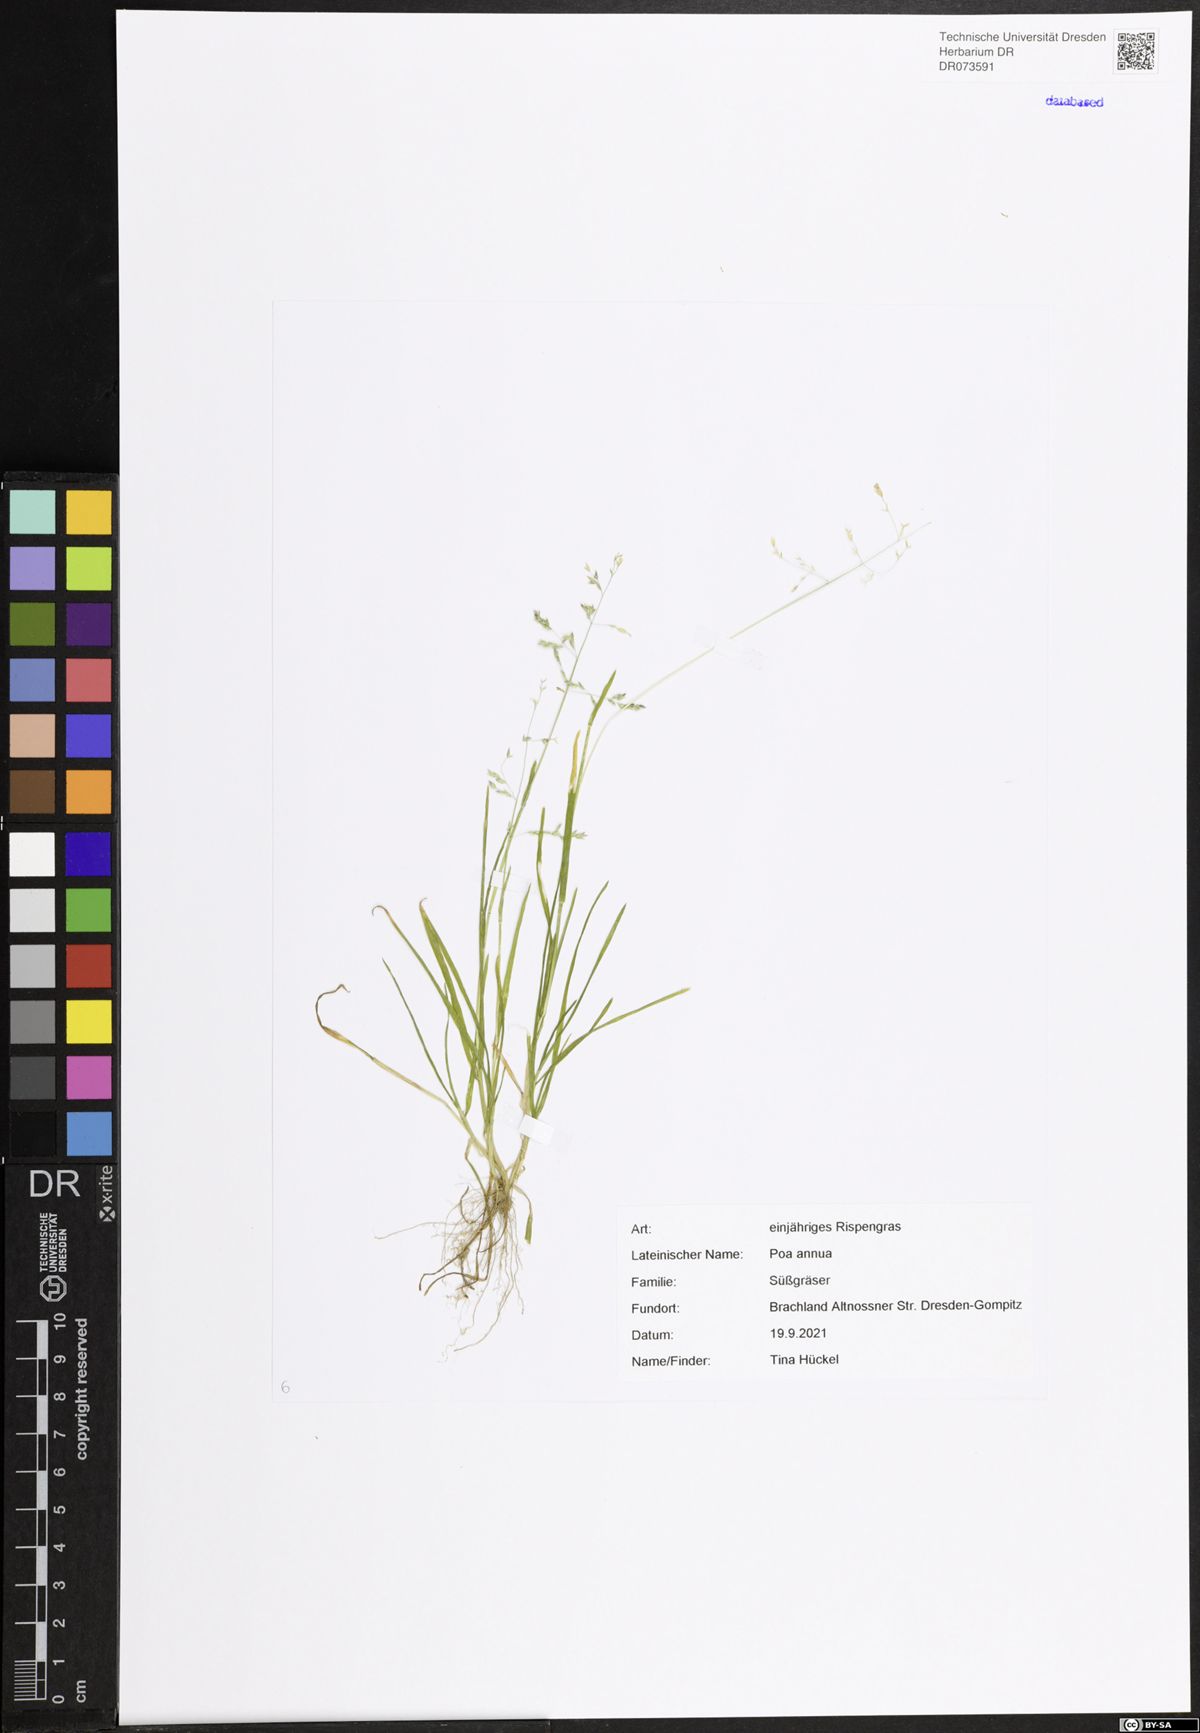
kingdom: Plantae
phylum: Tracheophyta
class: Liliopsida
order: Poales
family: Poaceae
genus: Poa
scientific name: Poa annua
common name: Annual bluegrass
